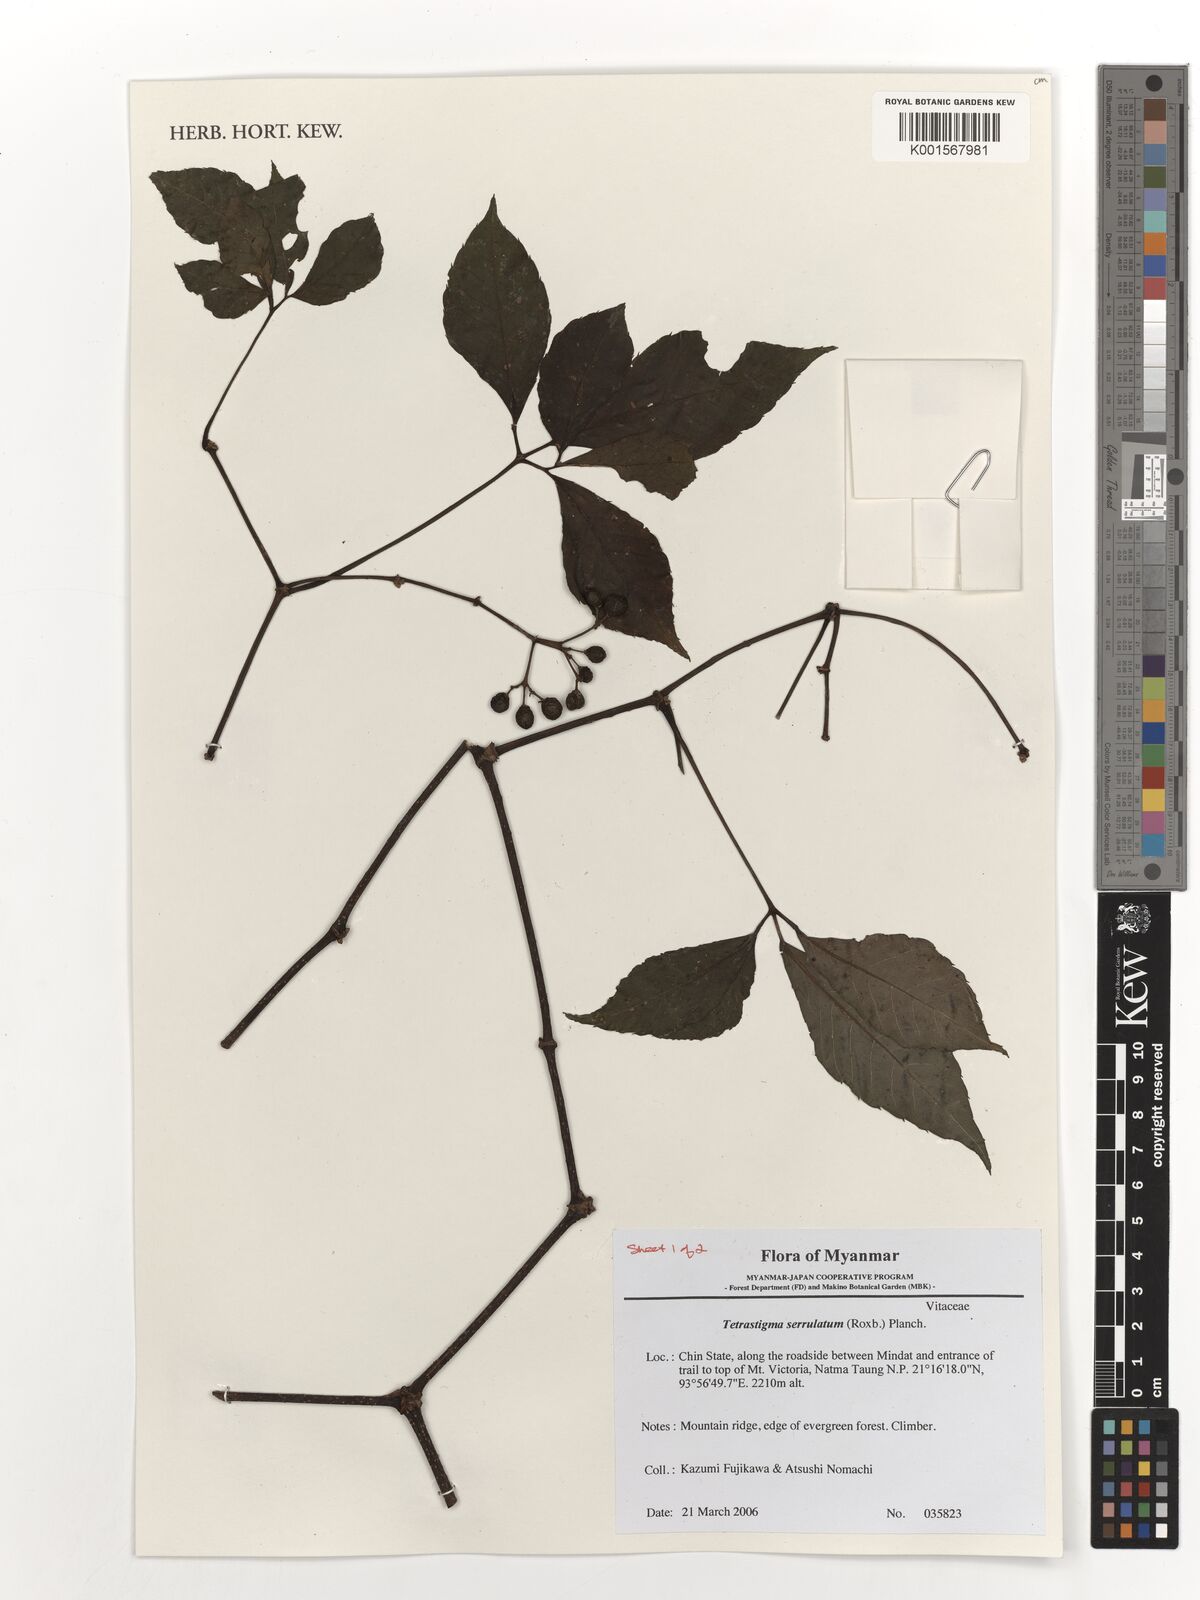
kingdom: Plantae
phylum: Tracheophyta
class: Magnoliopsida
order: Vitales
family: Vitaceae
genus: Tetrastigma
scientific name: Tetrastigma serrulatum
